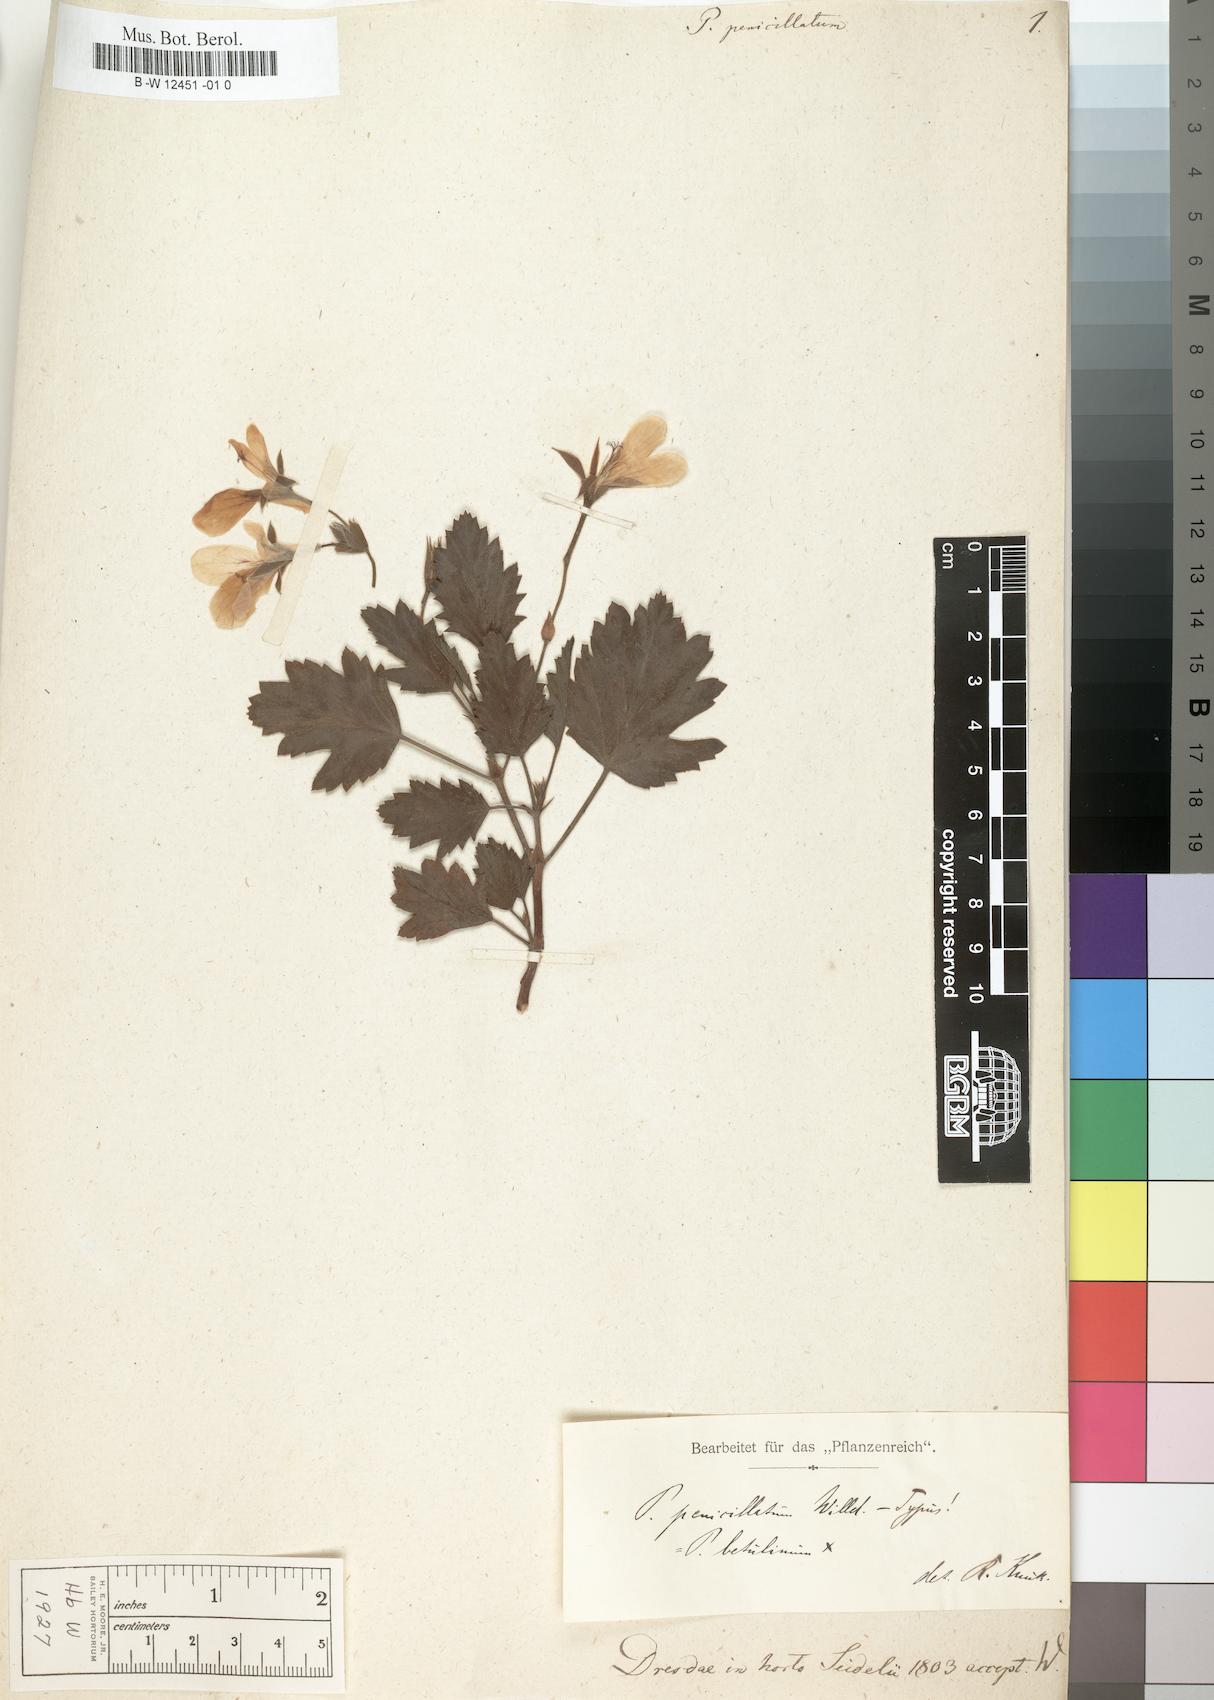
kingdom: Plantae
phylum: Tracheophyta
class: Magnoliopsida
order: Geraniales
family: Geraniaceae
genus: Pelargonium
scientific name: Pelargonium betulinum
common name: Birch-leaf pelargonium
